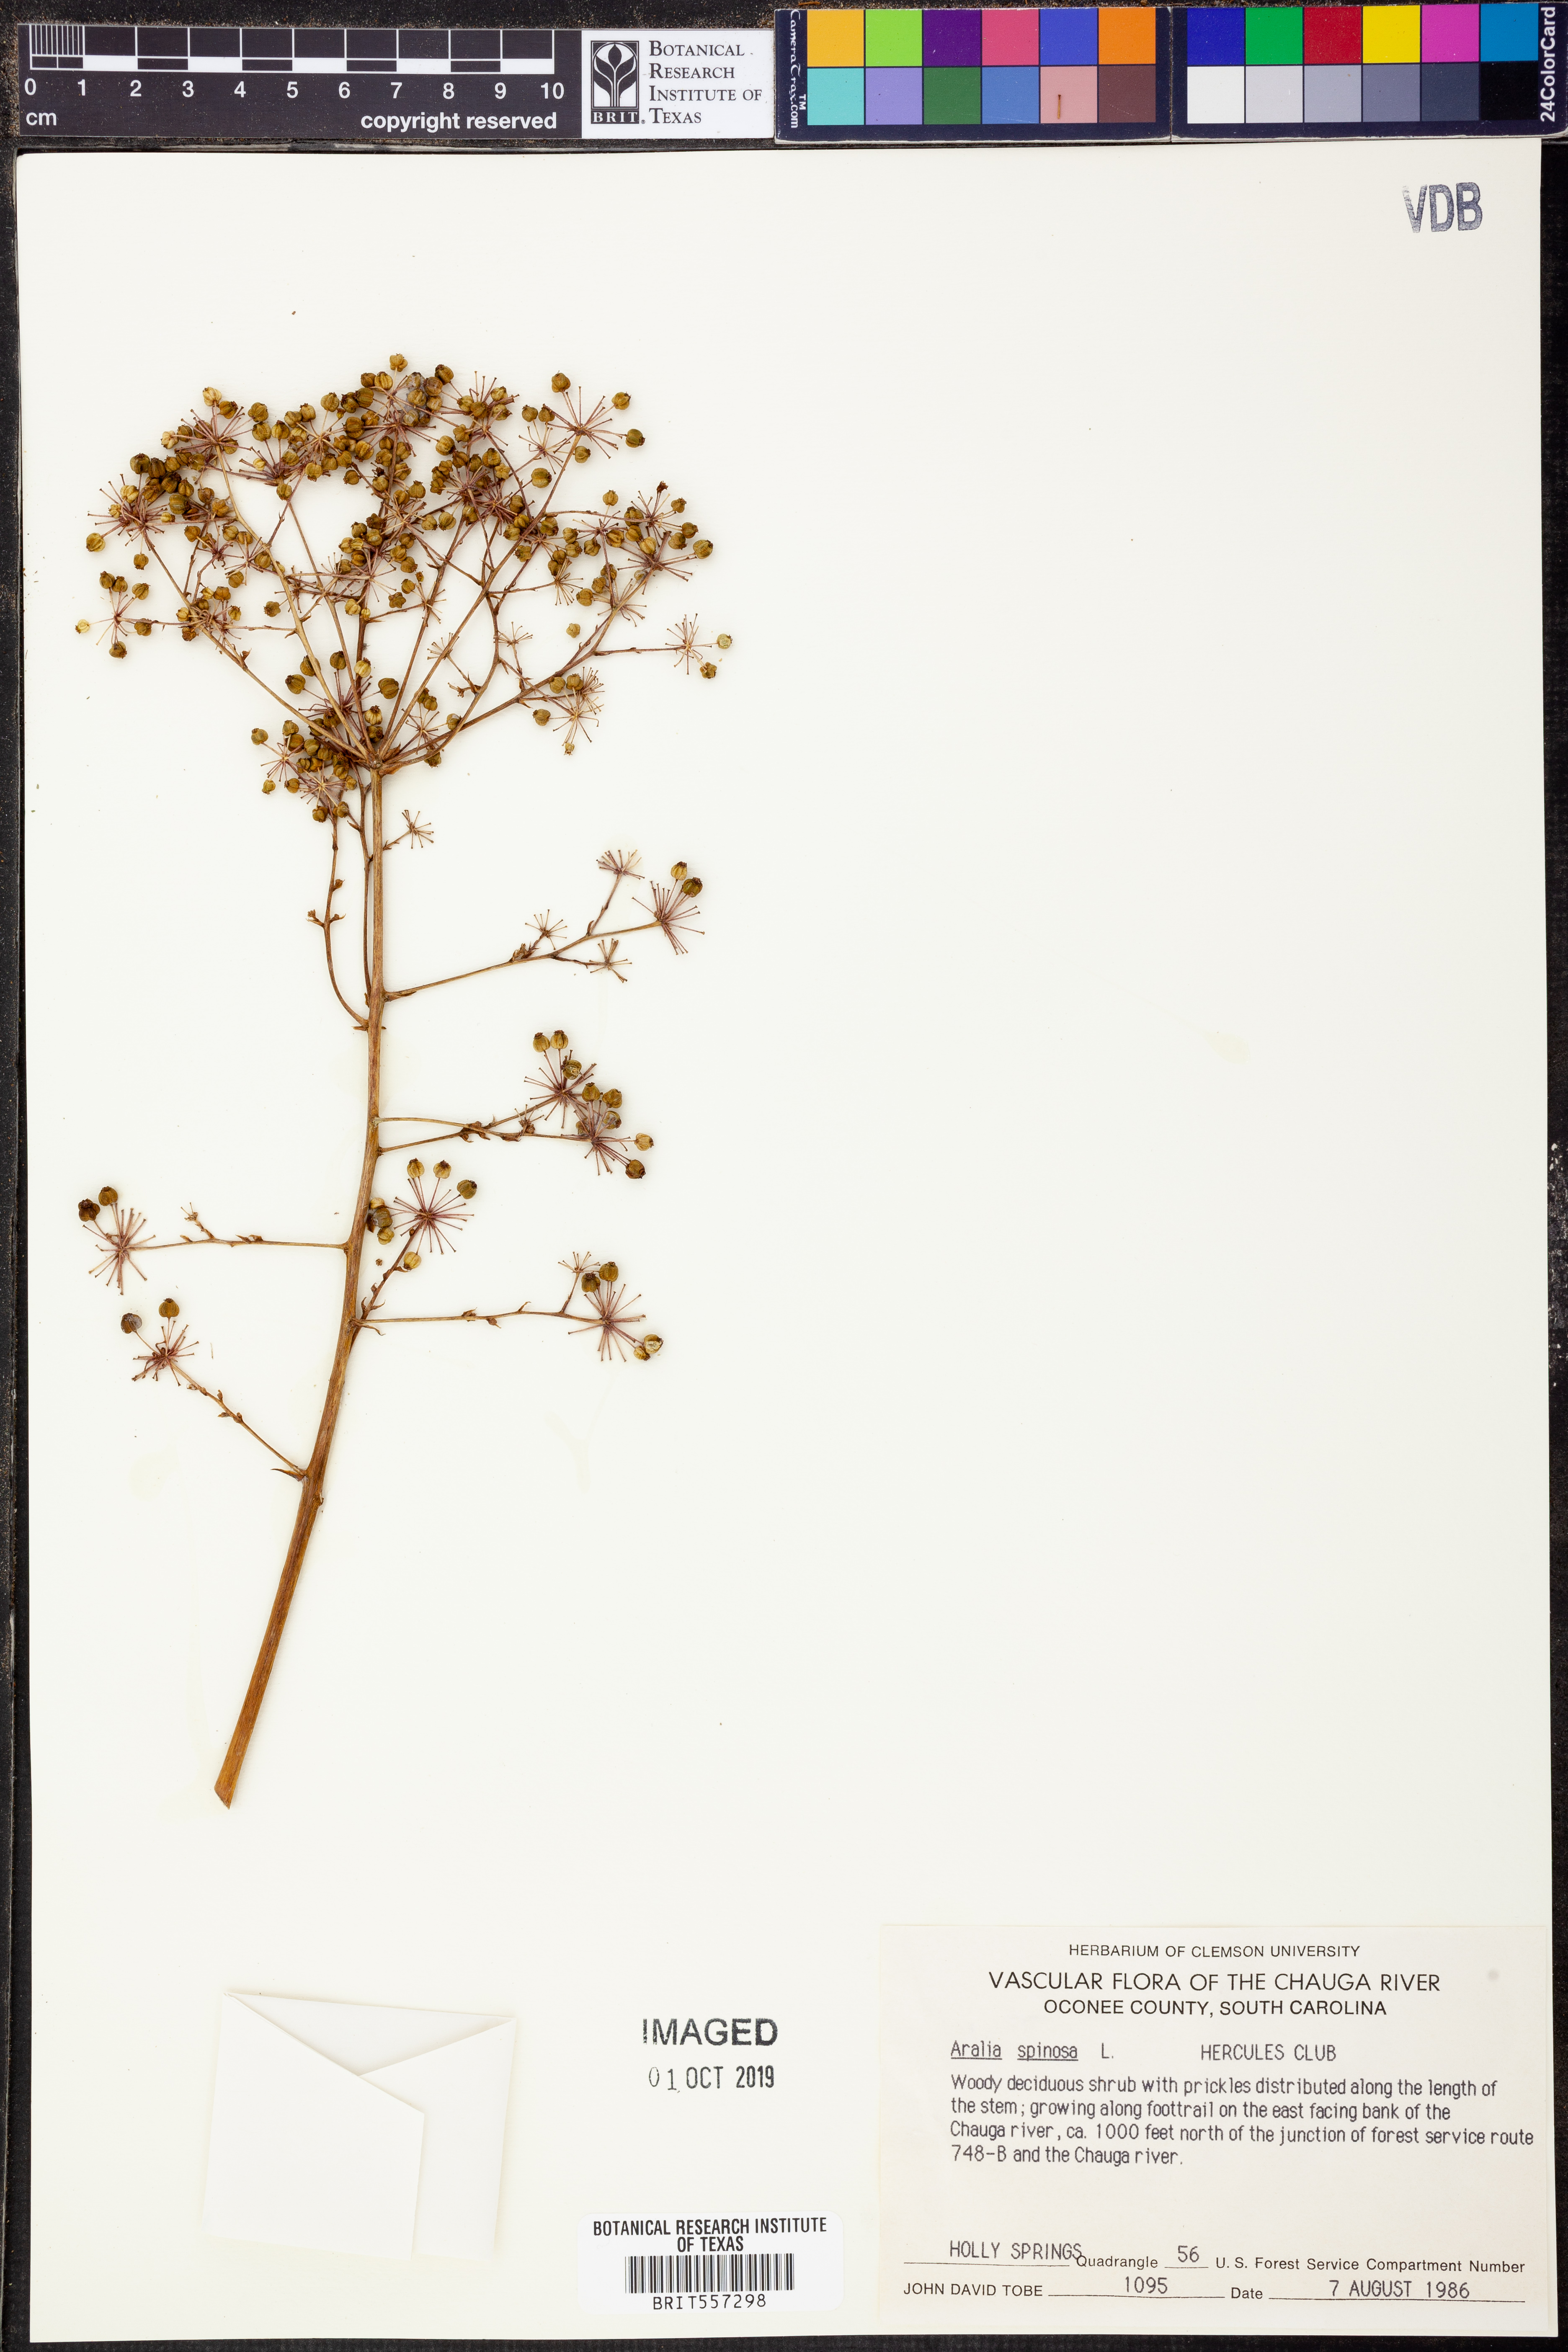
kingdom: Plantae
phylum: Tracheophyta
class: Magnoliopsida
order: Apiales
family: Araliaceae
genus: Aralia
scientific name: Aralia spinosa
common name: Hercules'-club
